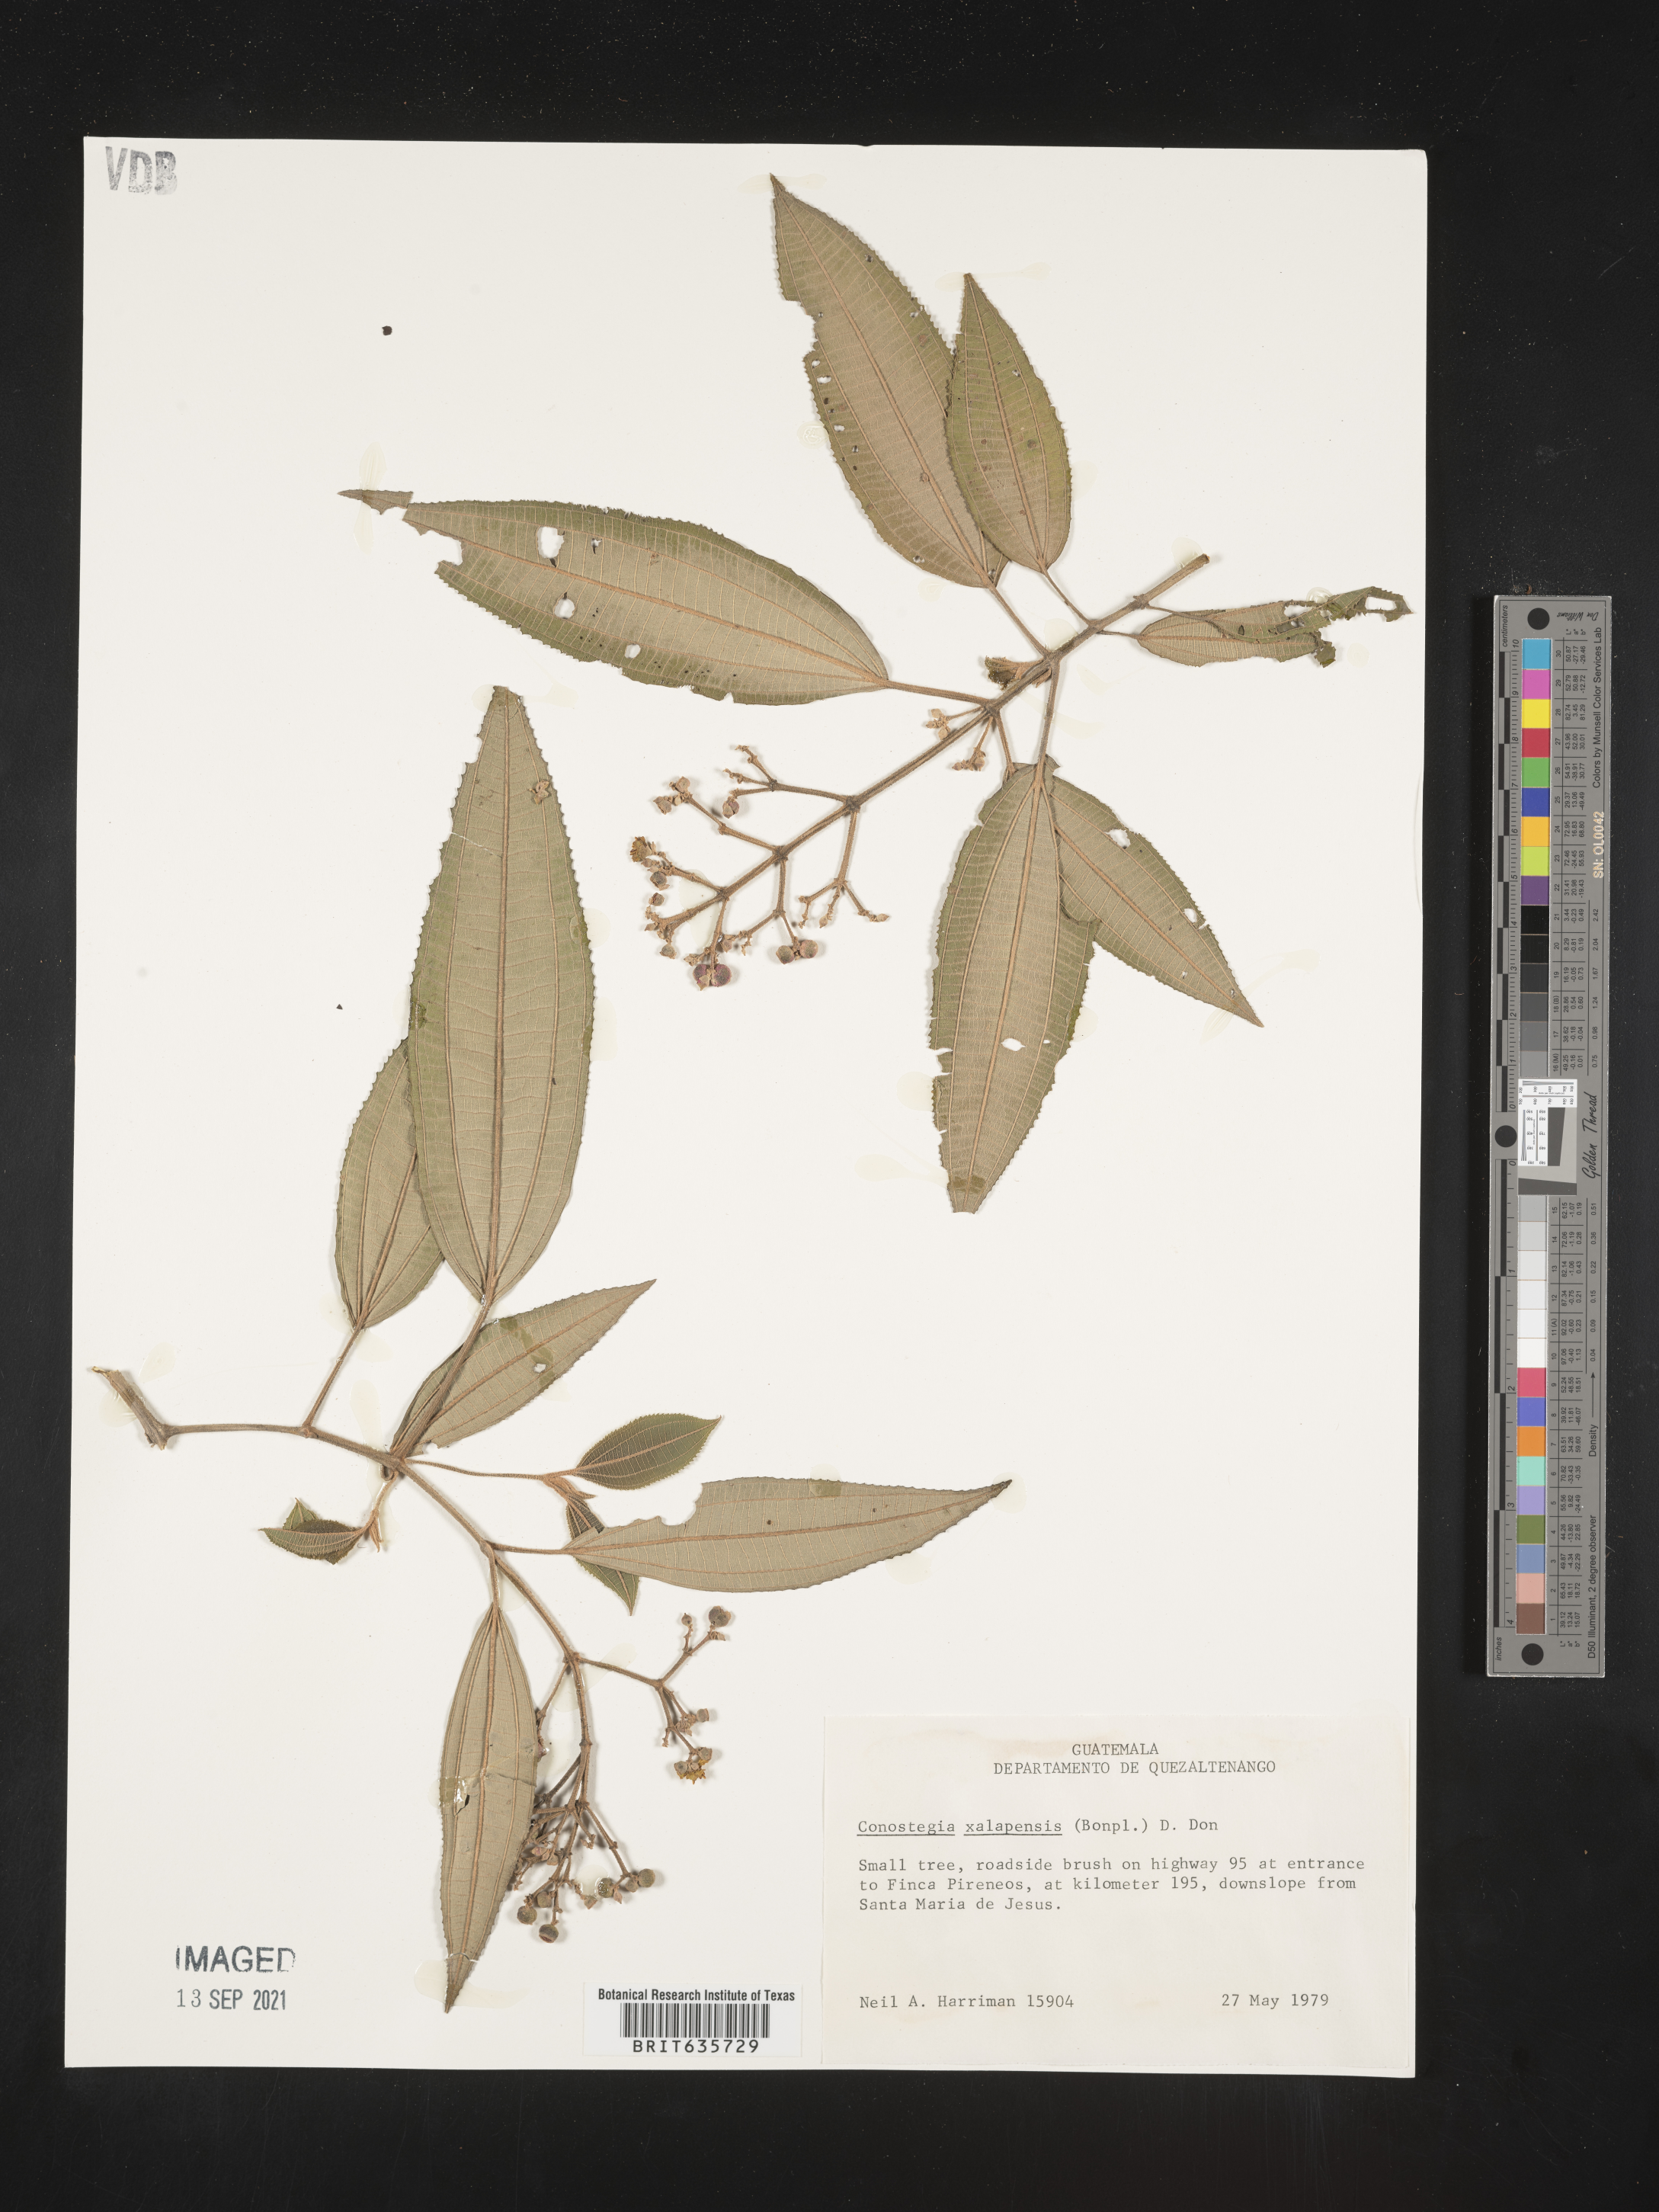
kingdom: Plantae
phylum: Tracheophyta
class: Magnoliopsida
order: Myrtales
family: Melastomataceae
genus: Miconia
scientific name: Miconia
